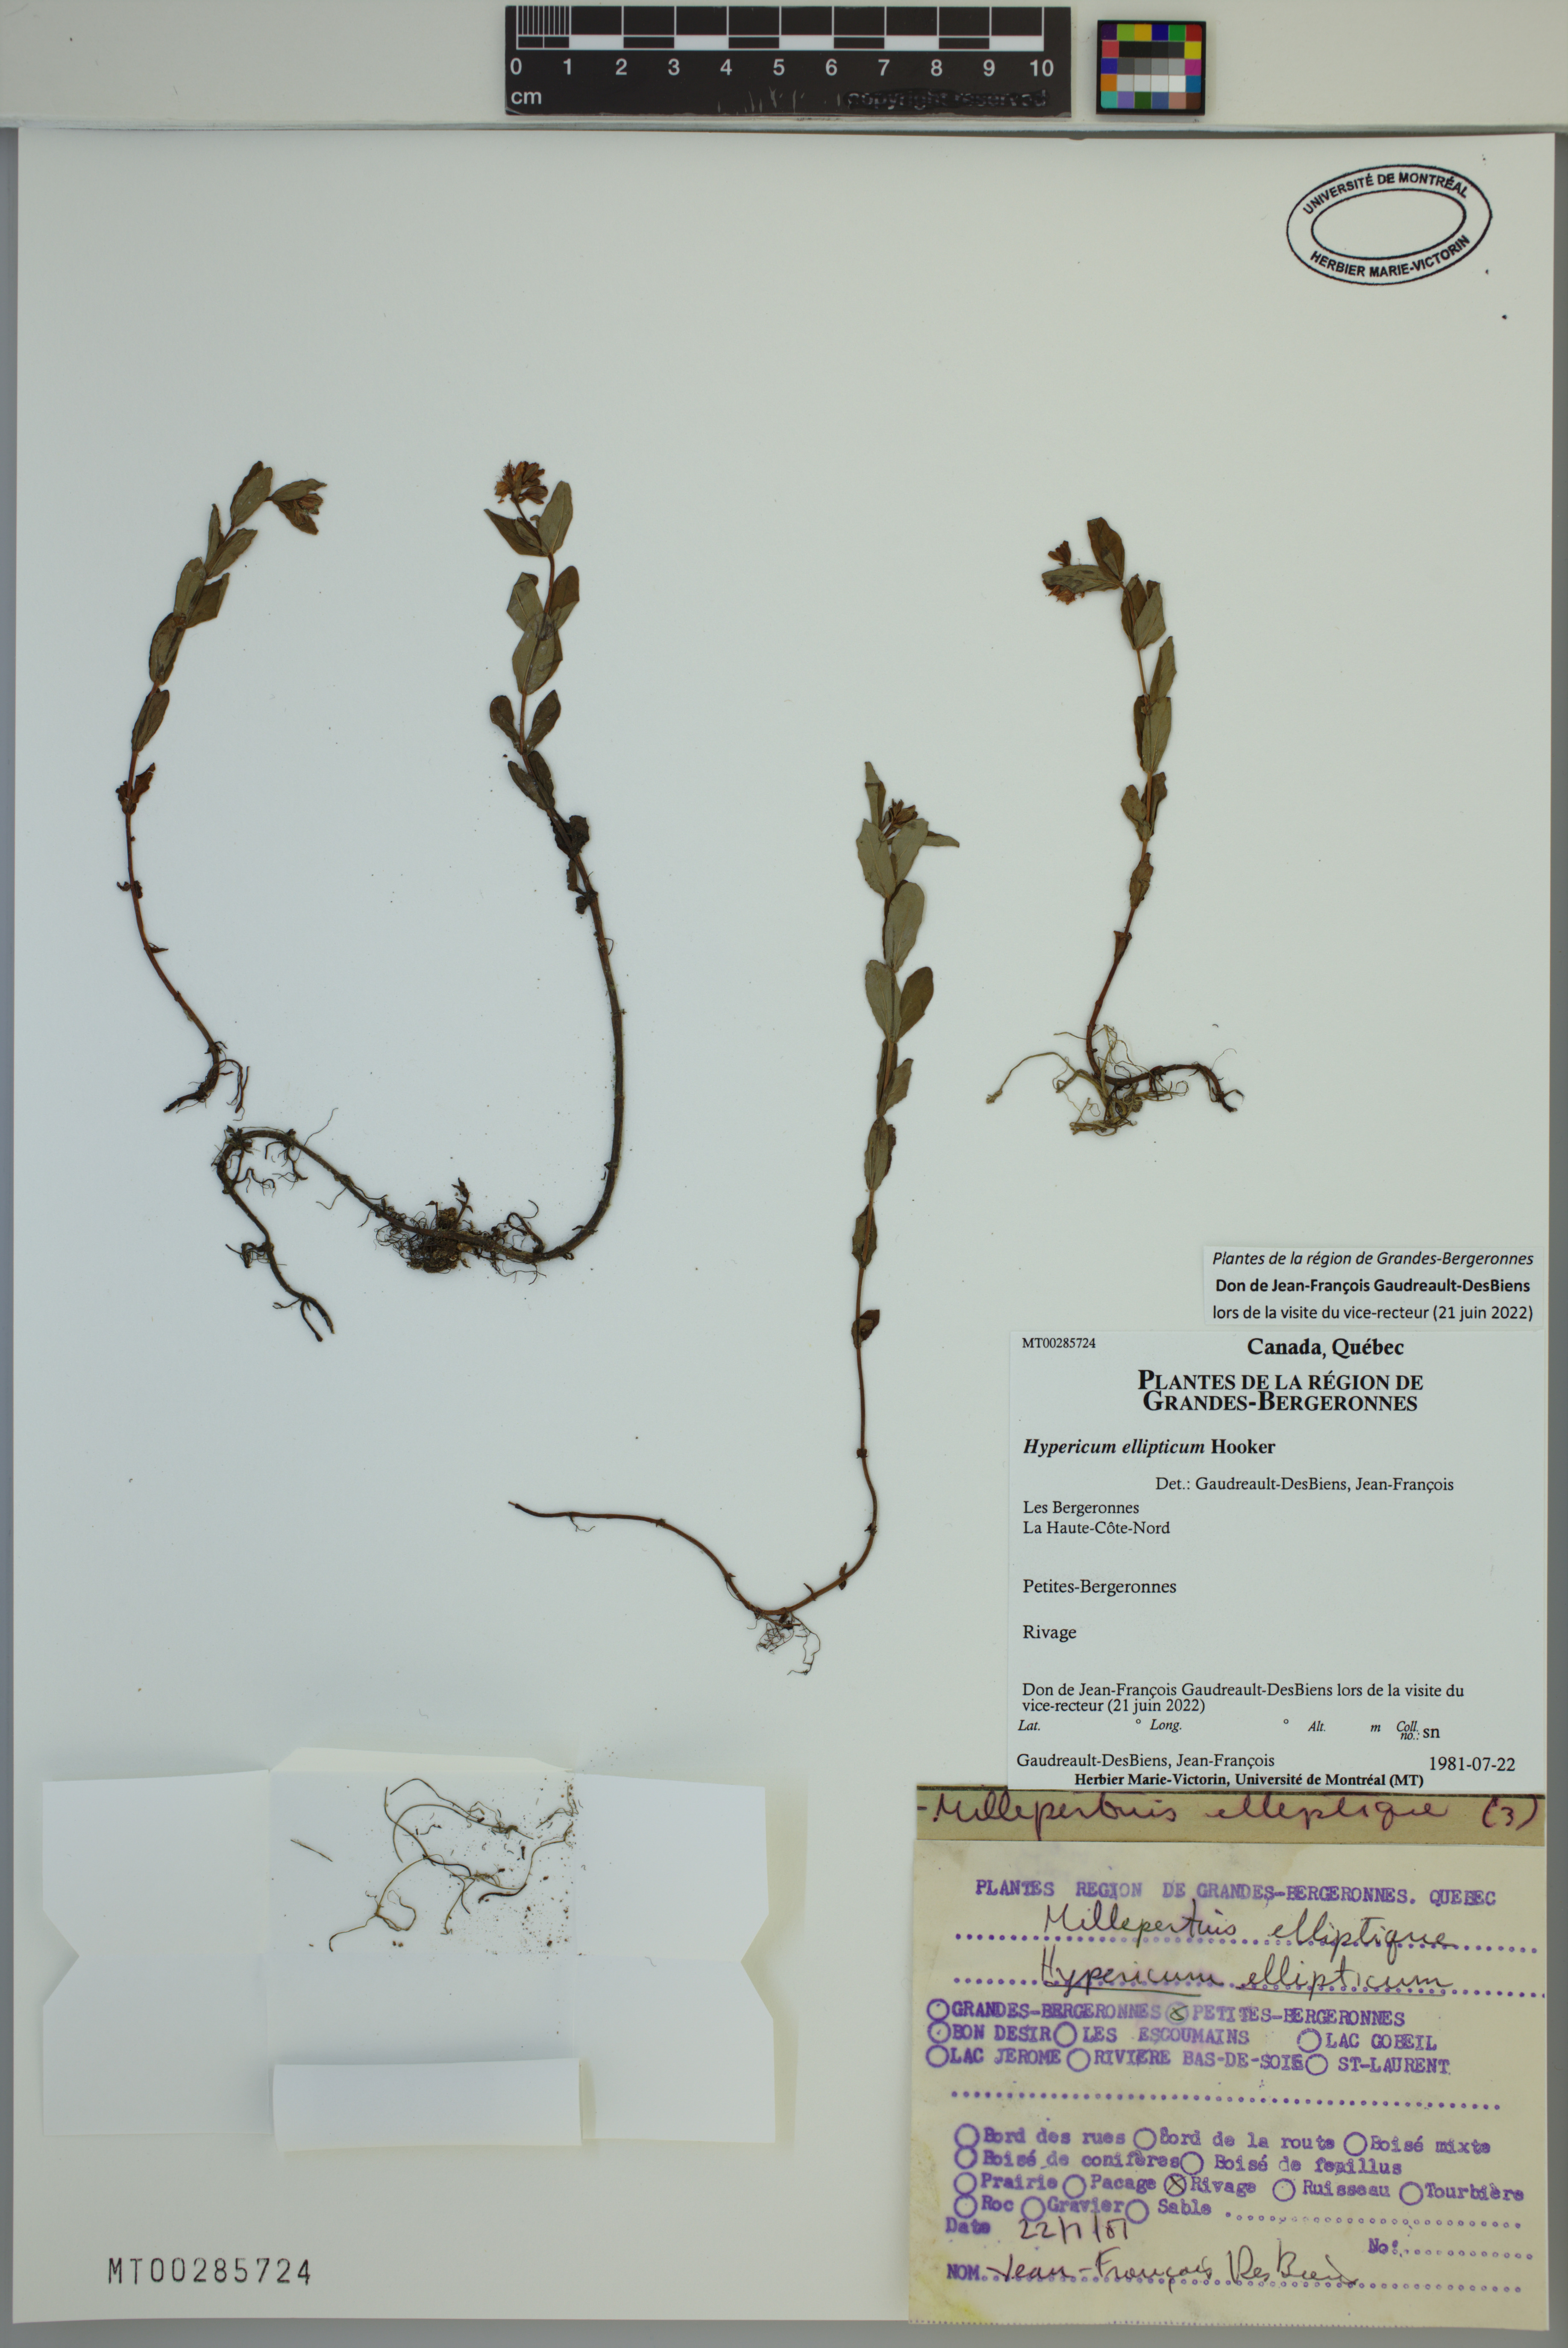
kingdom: Plantae
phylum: Tracheophyta
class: Magnoliopsida
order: Malpighiales
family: Hypericaceae
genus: Hypericum
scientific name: Hypericum ellipticum
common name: Elliptic st. john's-wort
